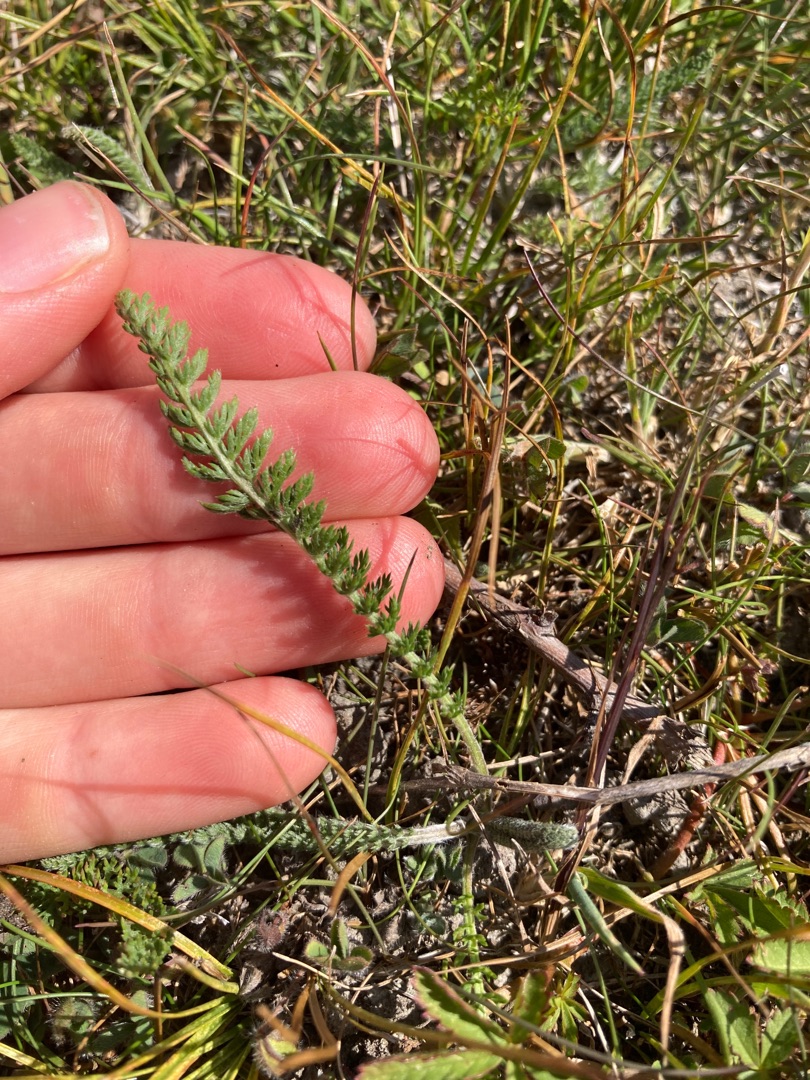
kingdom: Plantae
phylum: Tracheophyta
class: Magnoliopsida
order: Asterales
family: Asteraceae
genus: Achillea
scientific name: Achillea millefolium
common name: Almindelig røllike
